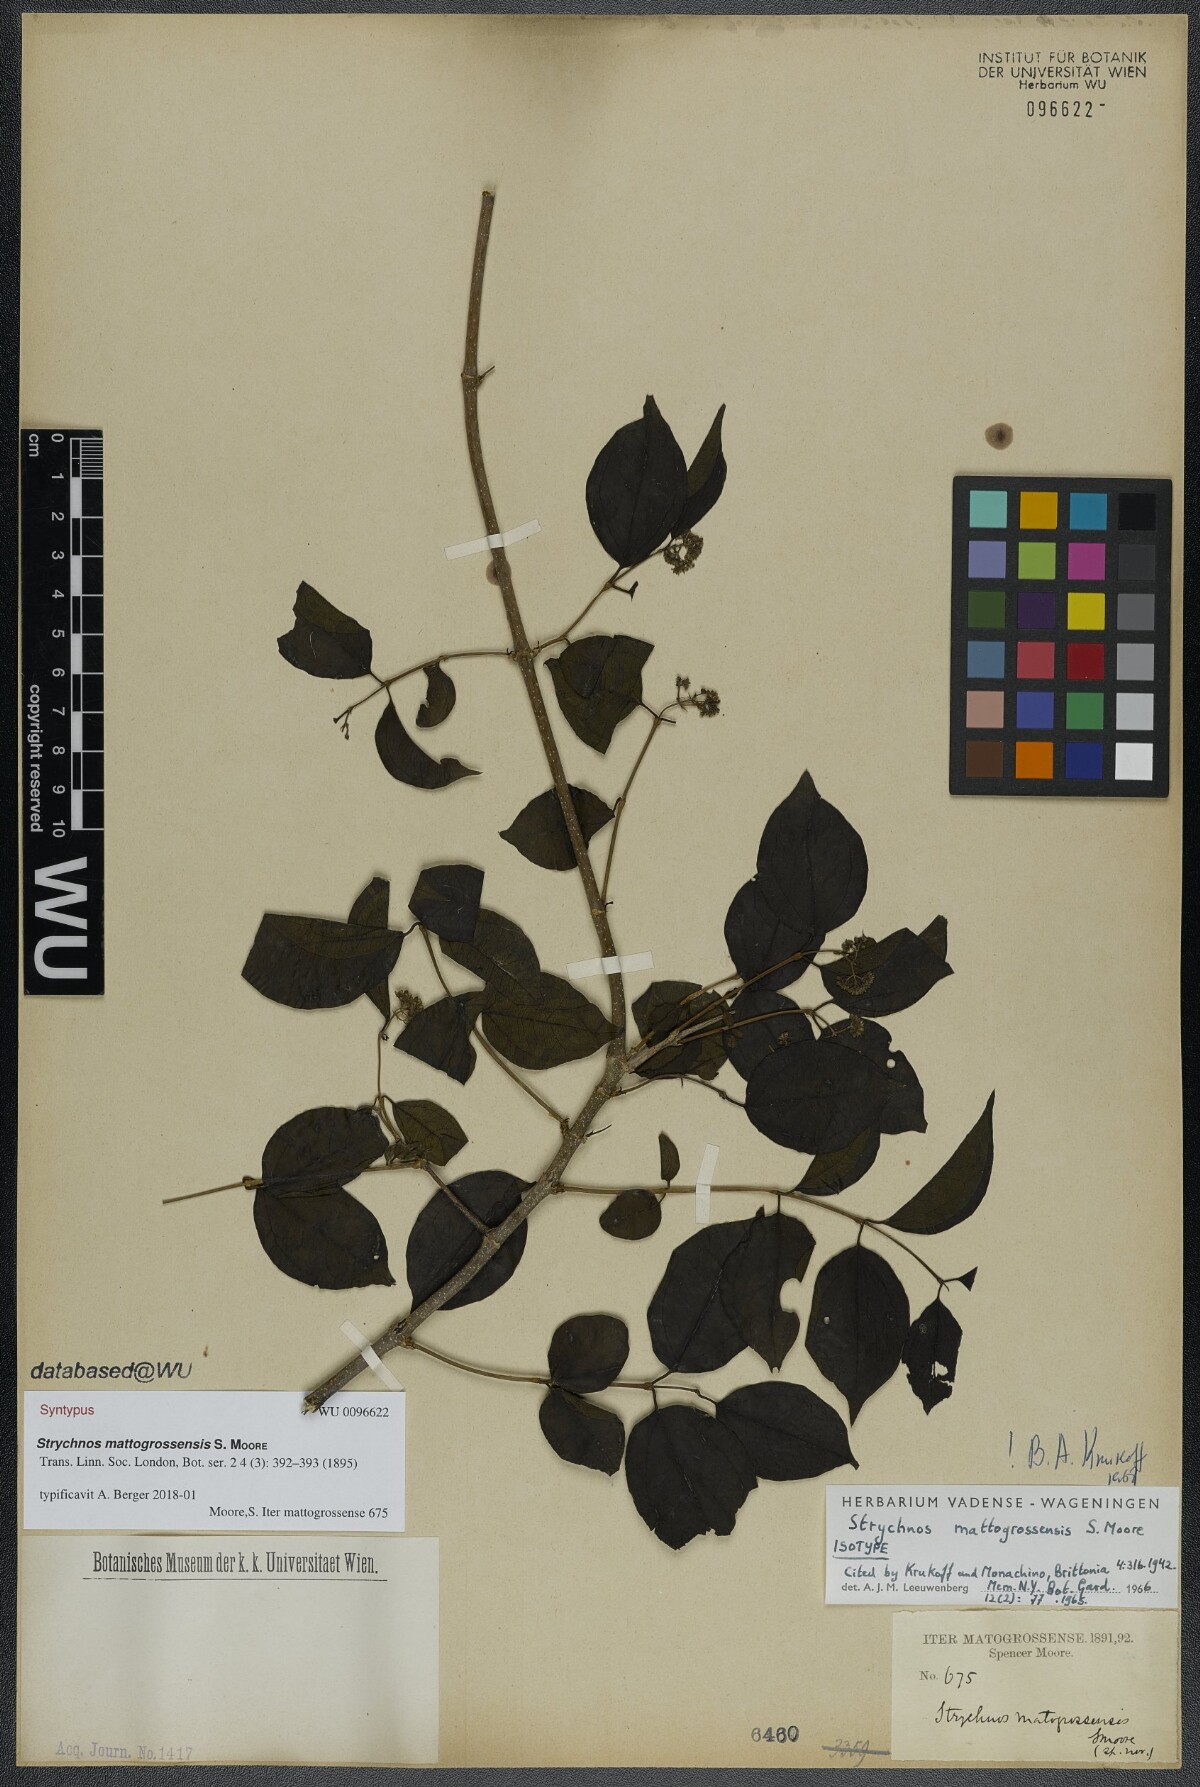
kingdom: Plantae
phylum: Tracheophyta
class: Magnoliopsida
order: Gentianales
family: Loganiaceae
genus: Strychnos
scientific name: Strychnos mattogrossensis
